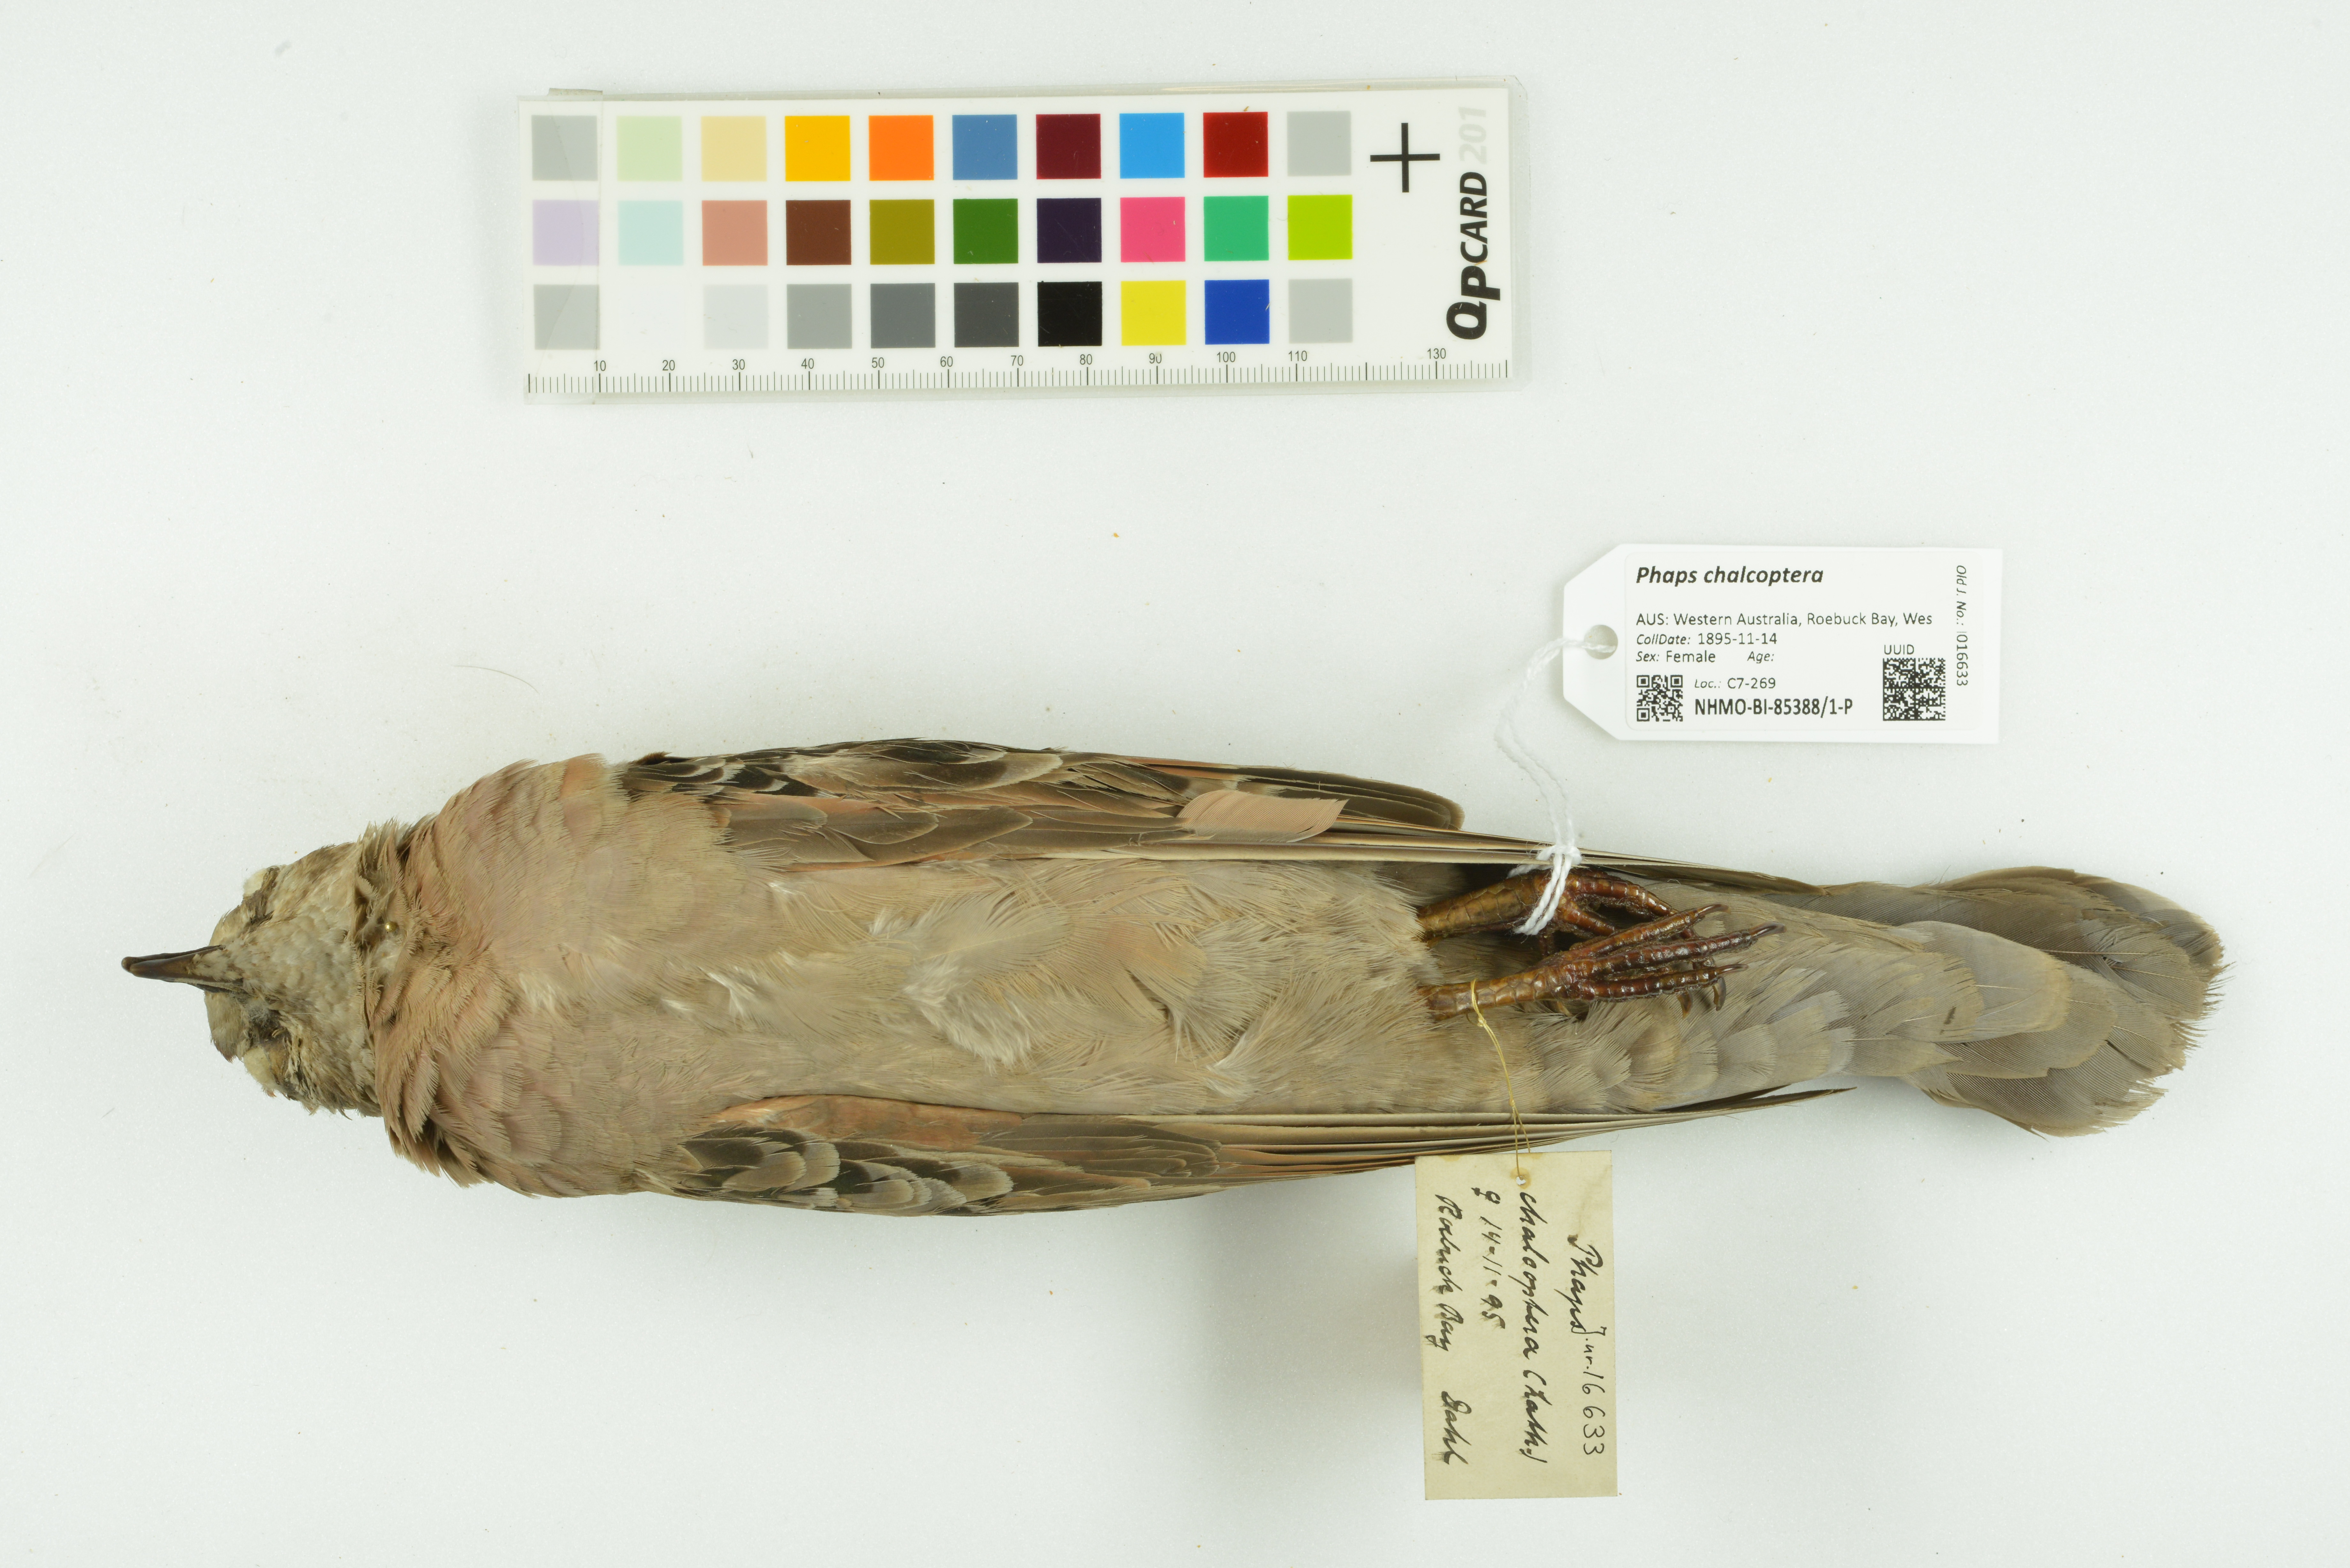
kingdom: Animalia
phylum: Chordata
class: Aves
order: Columbiformes
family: Columbidae
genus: Phaps
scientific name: Phaps chalcoptera
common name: Common bronzewing
